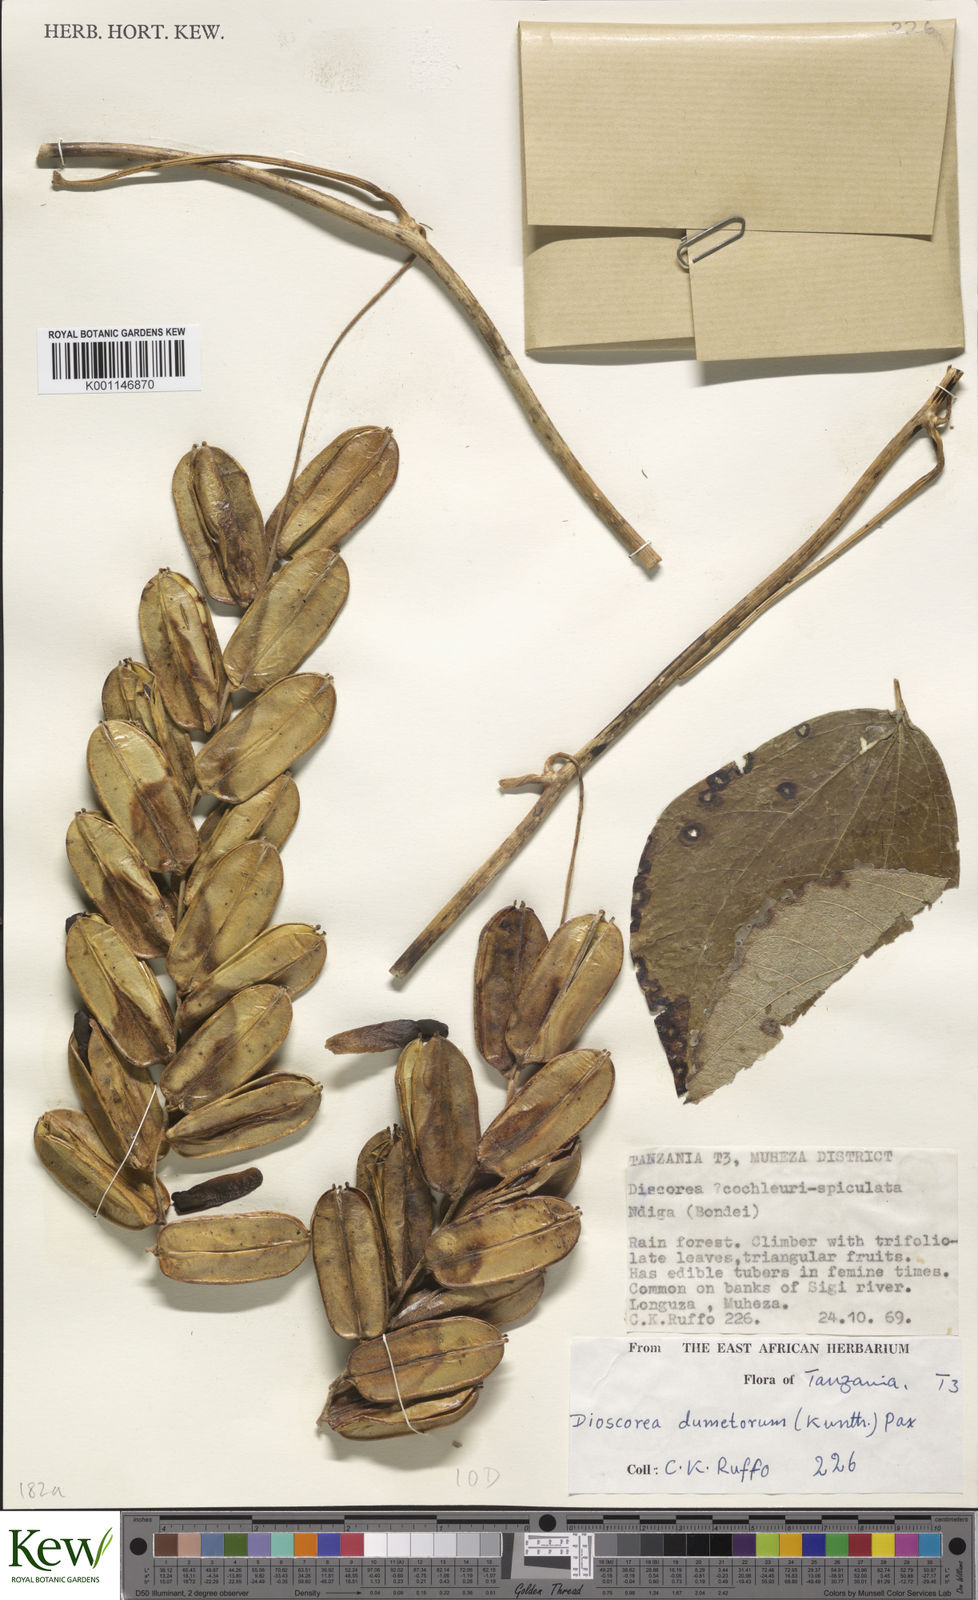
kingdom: Plantae
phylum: Tracheophyta
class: Liliopsida
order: Dioscoreales
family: Dioscoreaceae
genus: Dioscorea
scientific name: Dioscorea dumetorum
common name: African bitter yam
